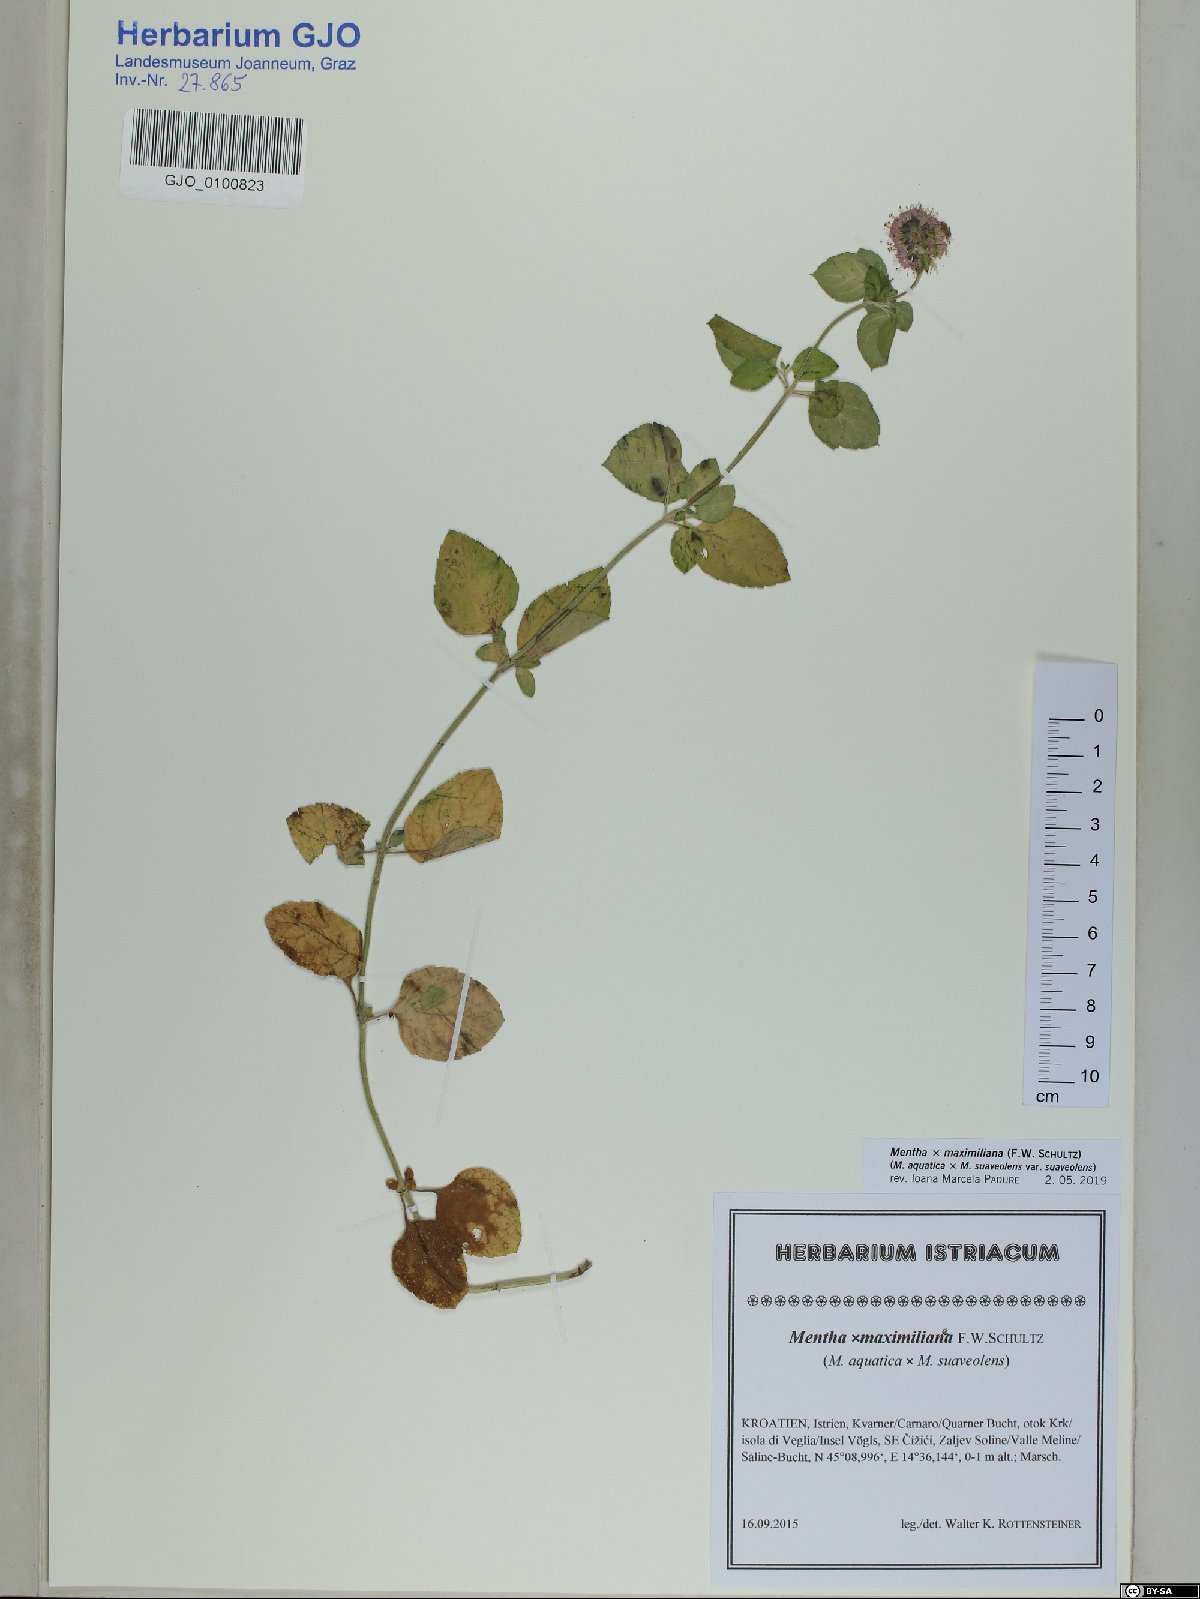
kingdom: Plantae
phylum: Tracheophyta
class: Magnoliopsida
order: Lamiales
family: Lamiaceae
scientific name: Lamiaceae
